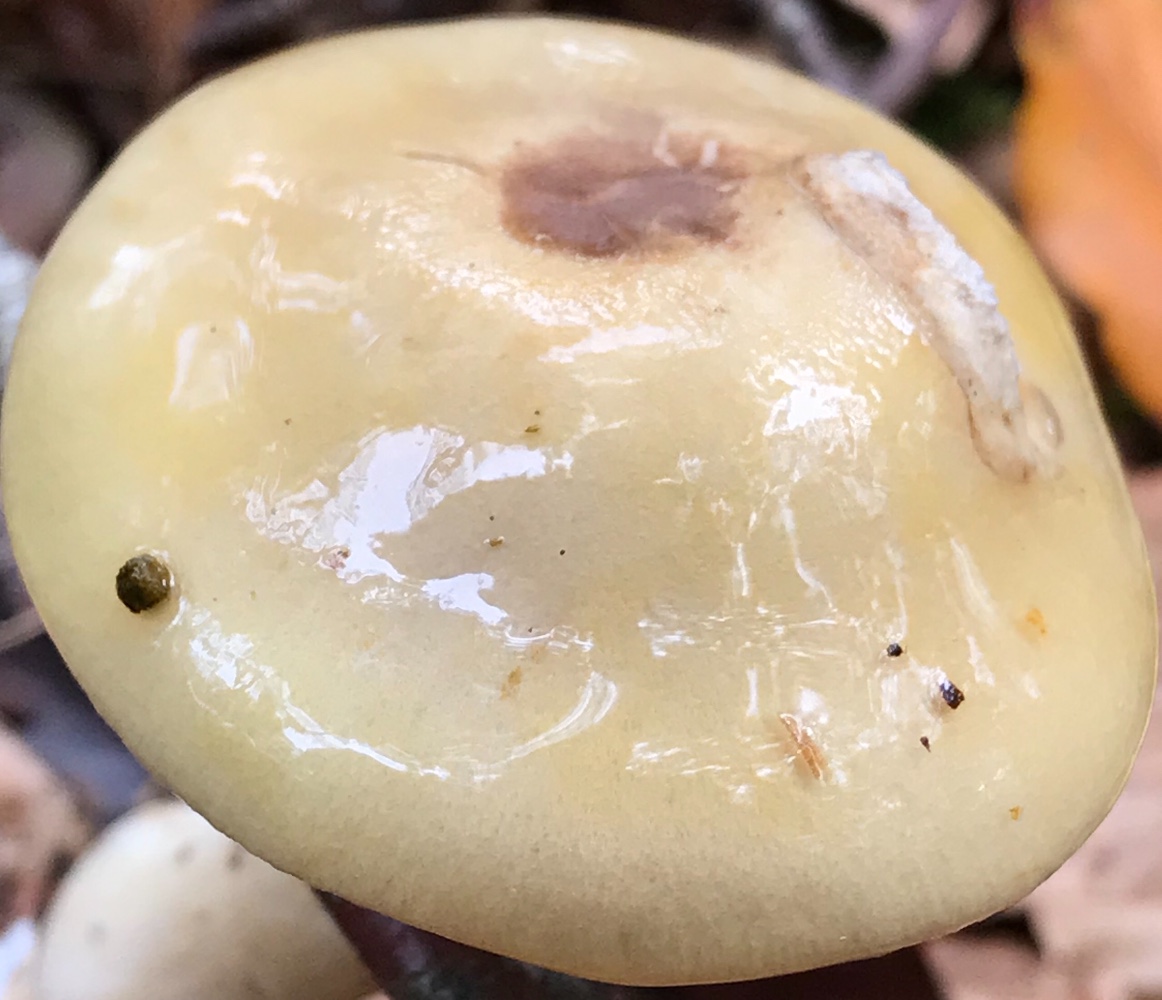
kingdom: Fungi
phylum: Basidiomycota
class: Agaricomycetes
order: Agaricales
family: Cortinariaceae
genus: Cortinarius
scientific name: Cortinarius delibutus
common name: gul slørhat
